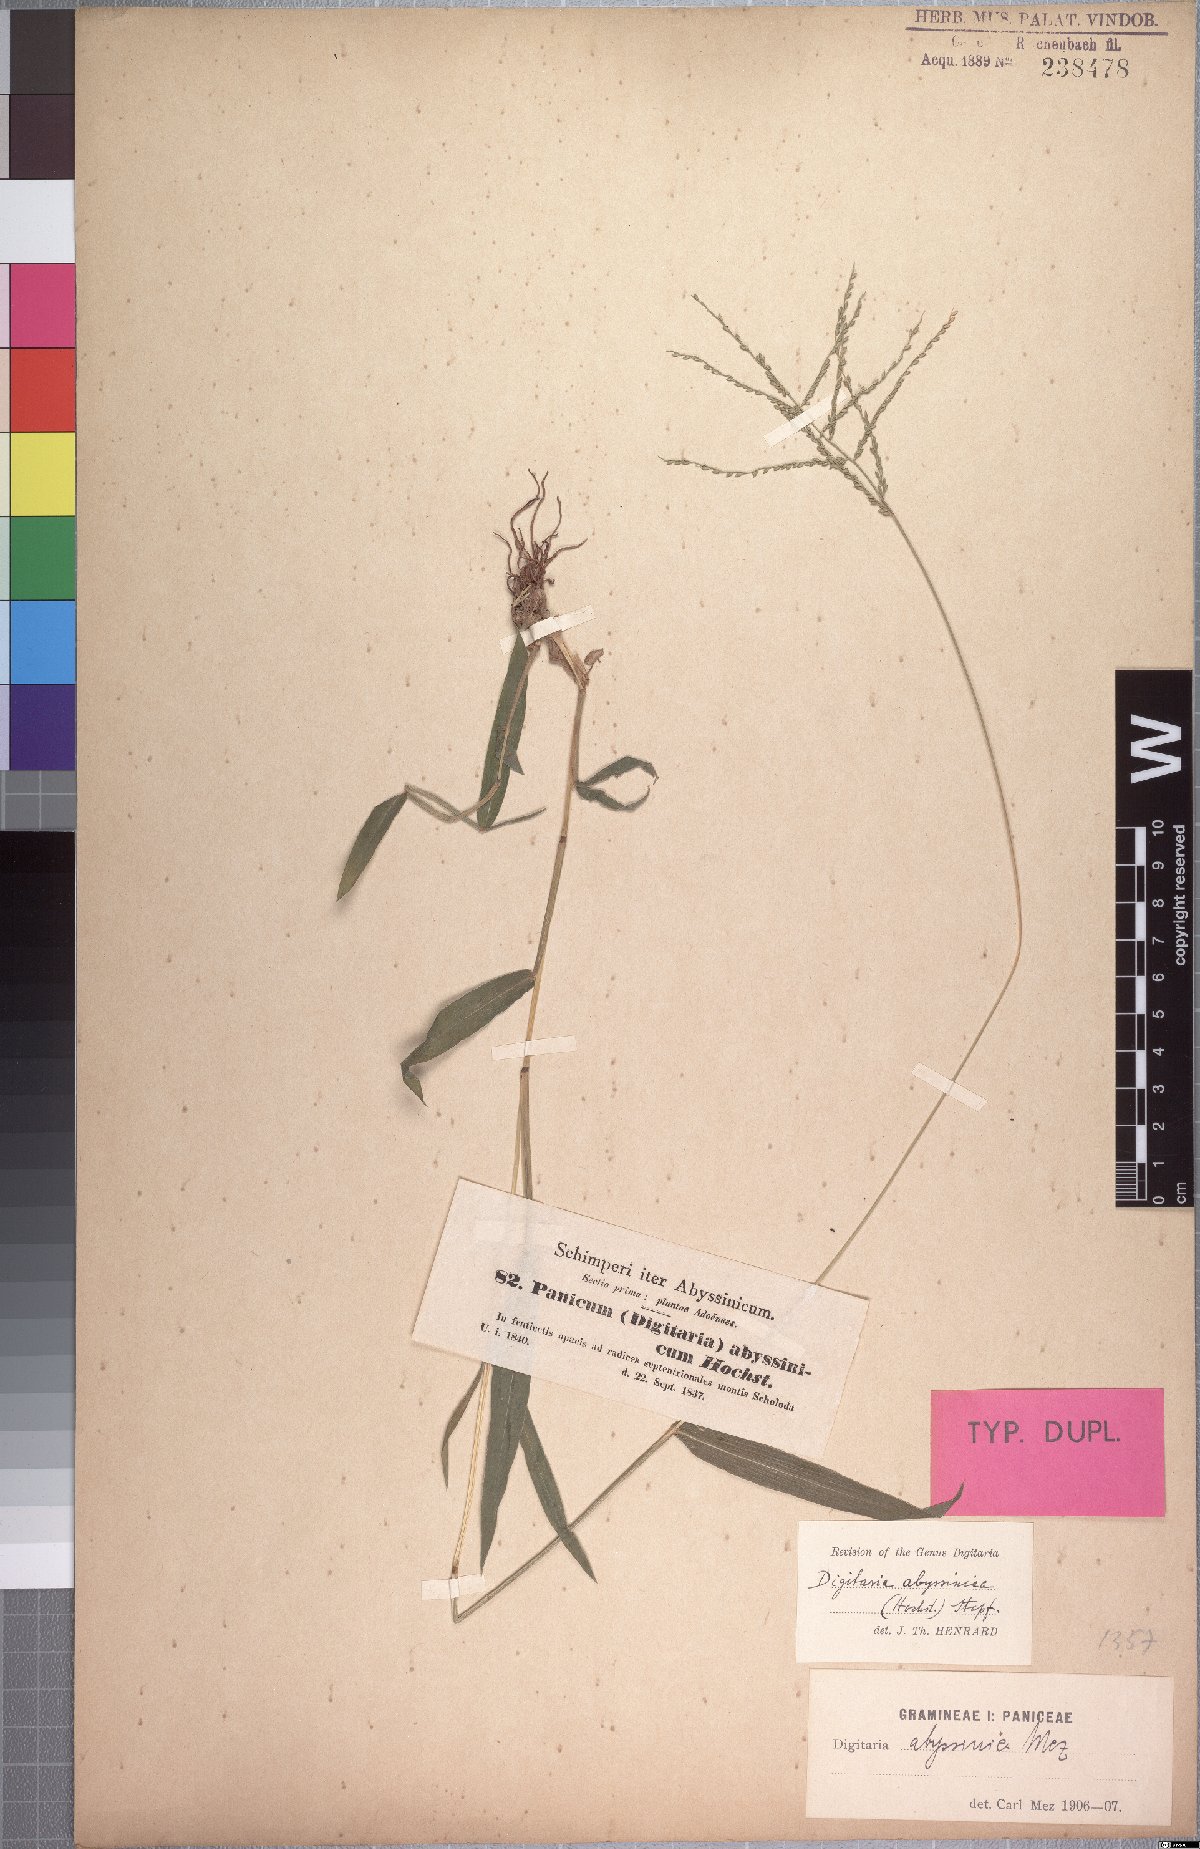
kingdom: Plantae
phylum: Tracheophyta
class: Liliopsida
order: Poales
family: Poaceae
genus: Digitaria
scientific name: Digitaria abyssinica
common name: African couchgrass
